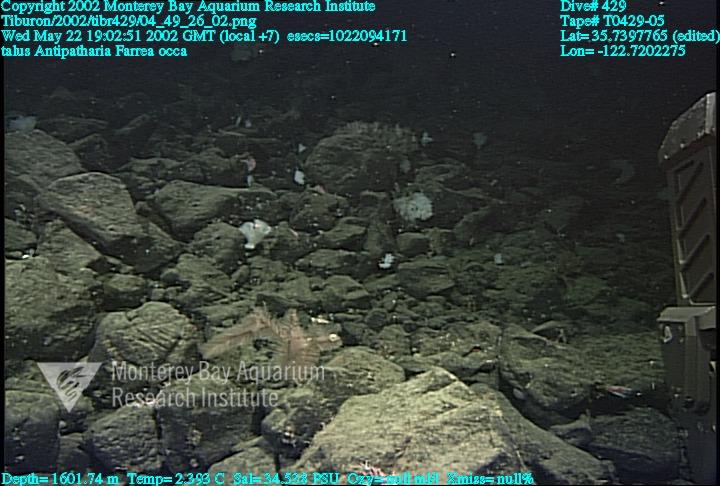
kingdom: Animalia
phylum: Porifera
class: Hexactinellida
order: Sceptrulophora
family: Farreidae
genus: Farrea
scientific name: Farrea occa
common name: Reversed glass sponge
